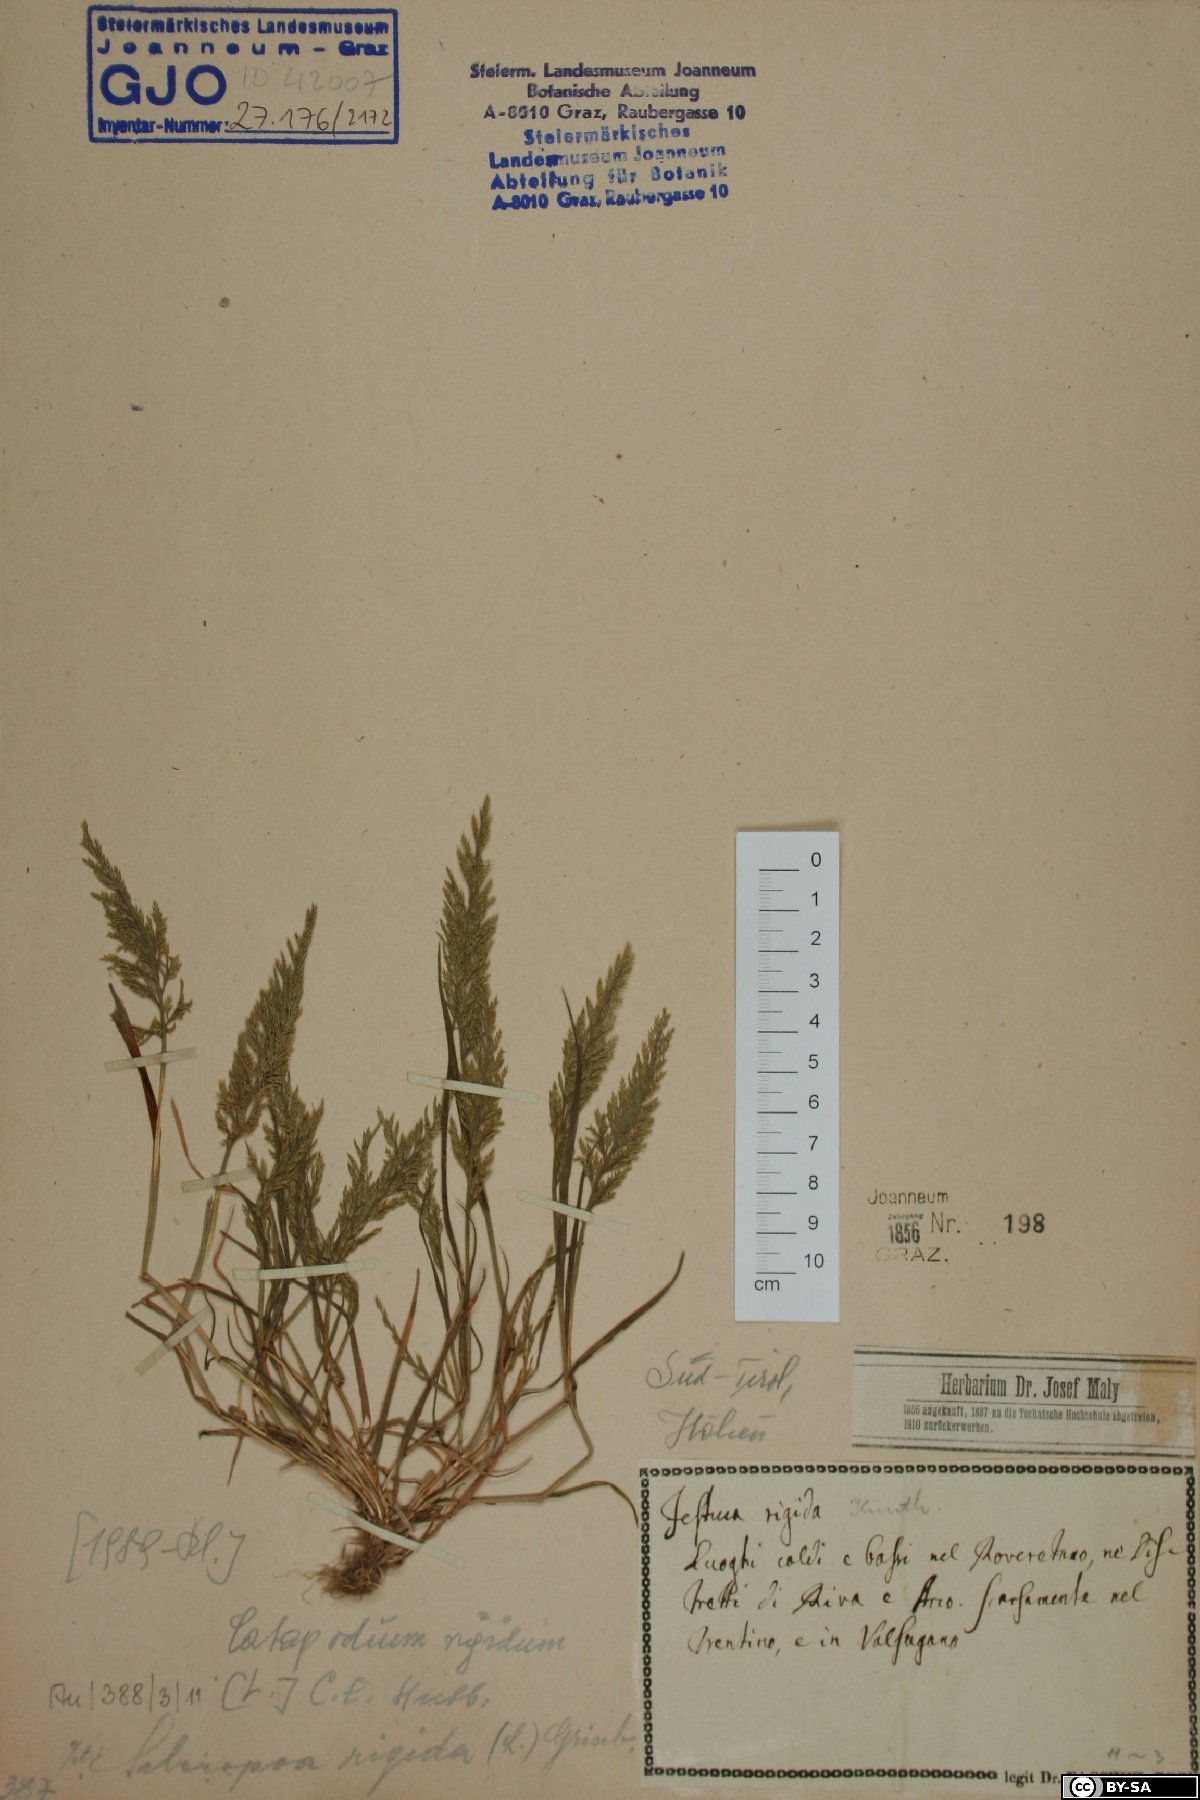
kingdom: Plantae
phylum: Tracheophyta
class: Liliopsida
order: Poales
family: Poaceae
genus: Catapodium
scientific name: Catapodium rigidum
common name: Fern-grass
